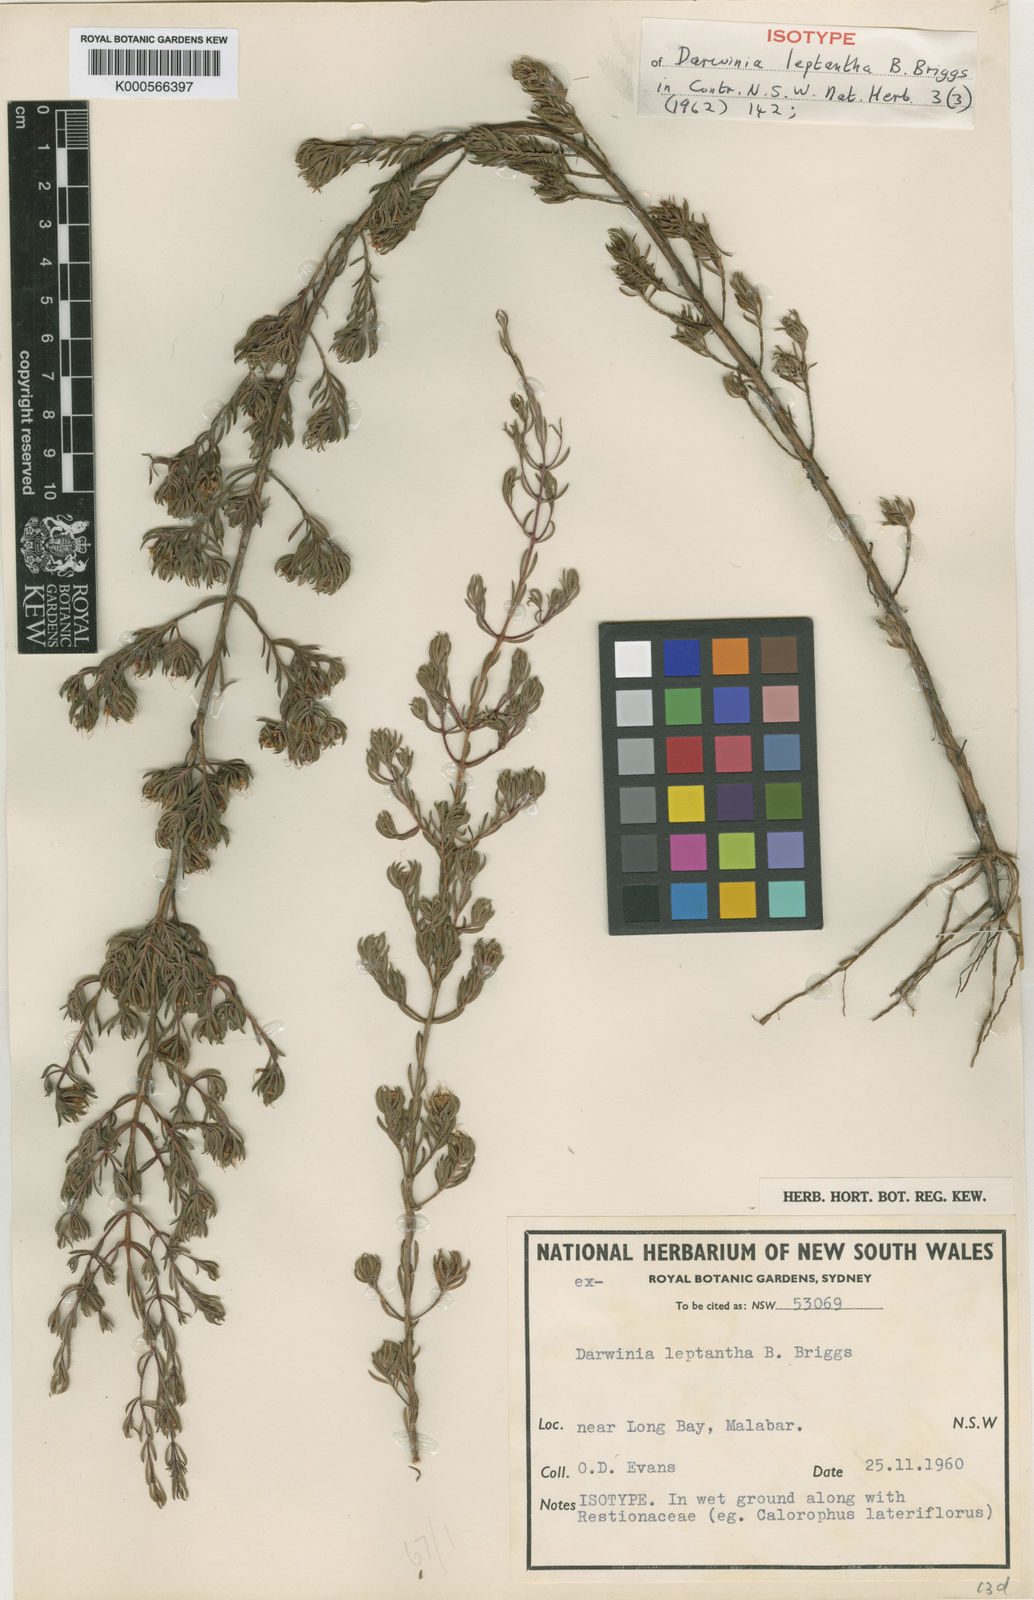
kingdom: Plantae
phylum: Tracheophyta
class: Magnoliopsida
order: Myrtales
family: Myrtaceae
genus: Darwinia
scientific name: Darwinia leptantha
